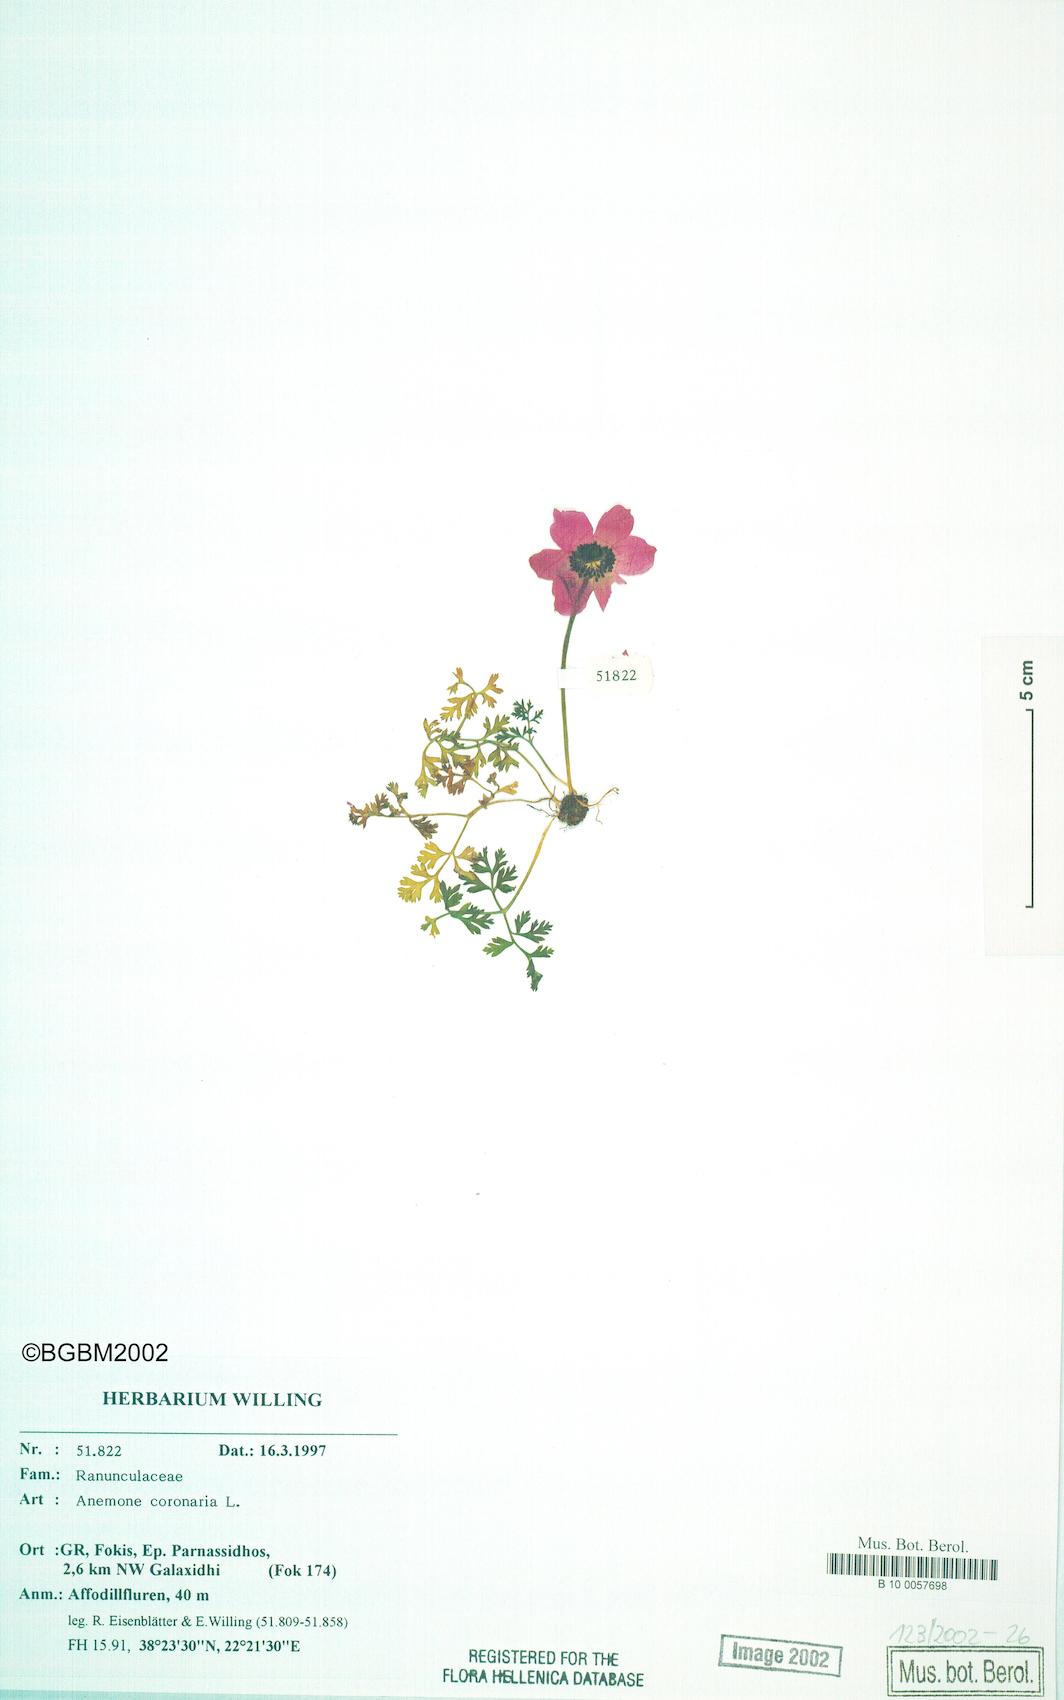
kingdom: Plantae
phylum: Tracheophyta
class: Magnoliopsida
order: Ranunculales
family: Ranunculaceae
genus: Anemone
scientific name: Anemone coronaria
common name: Poppy anemone
